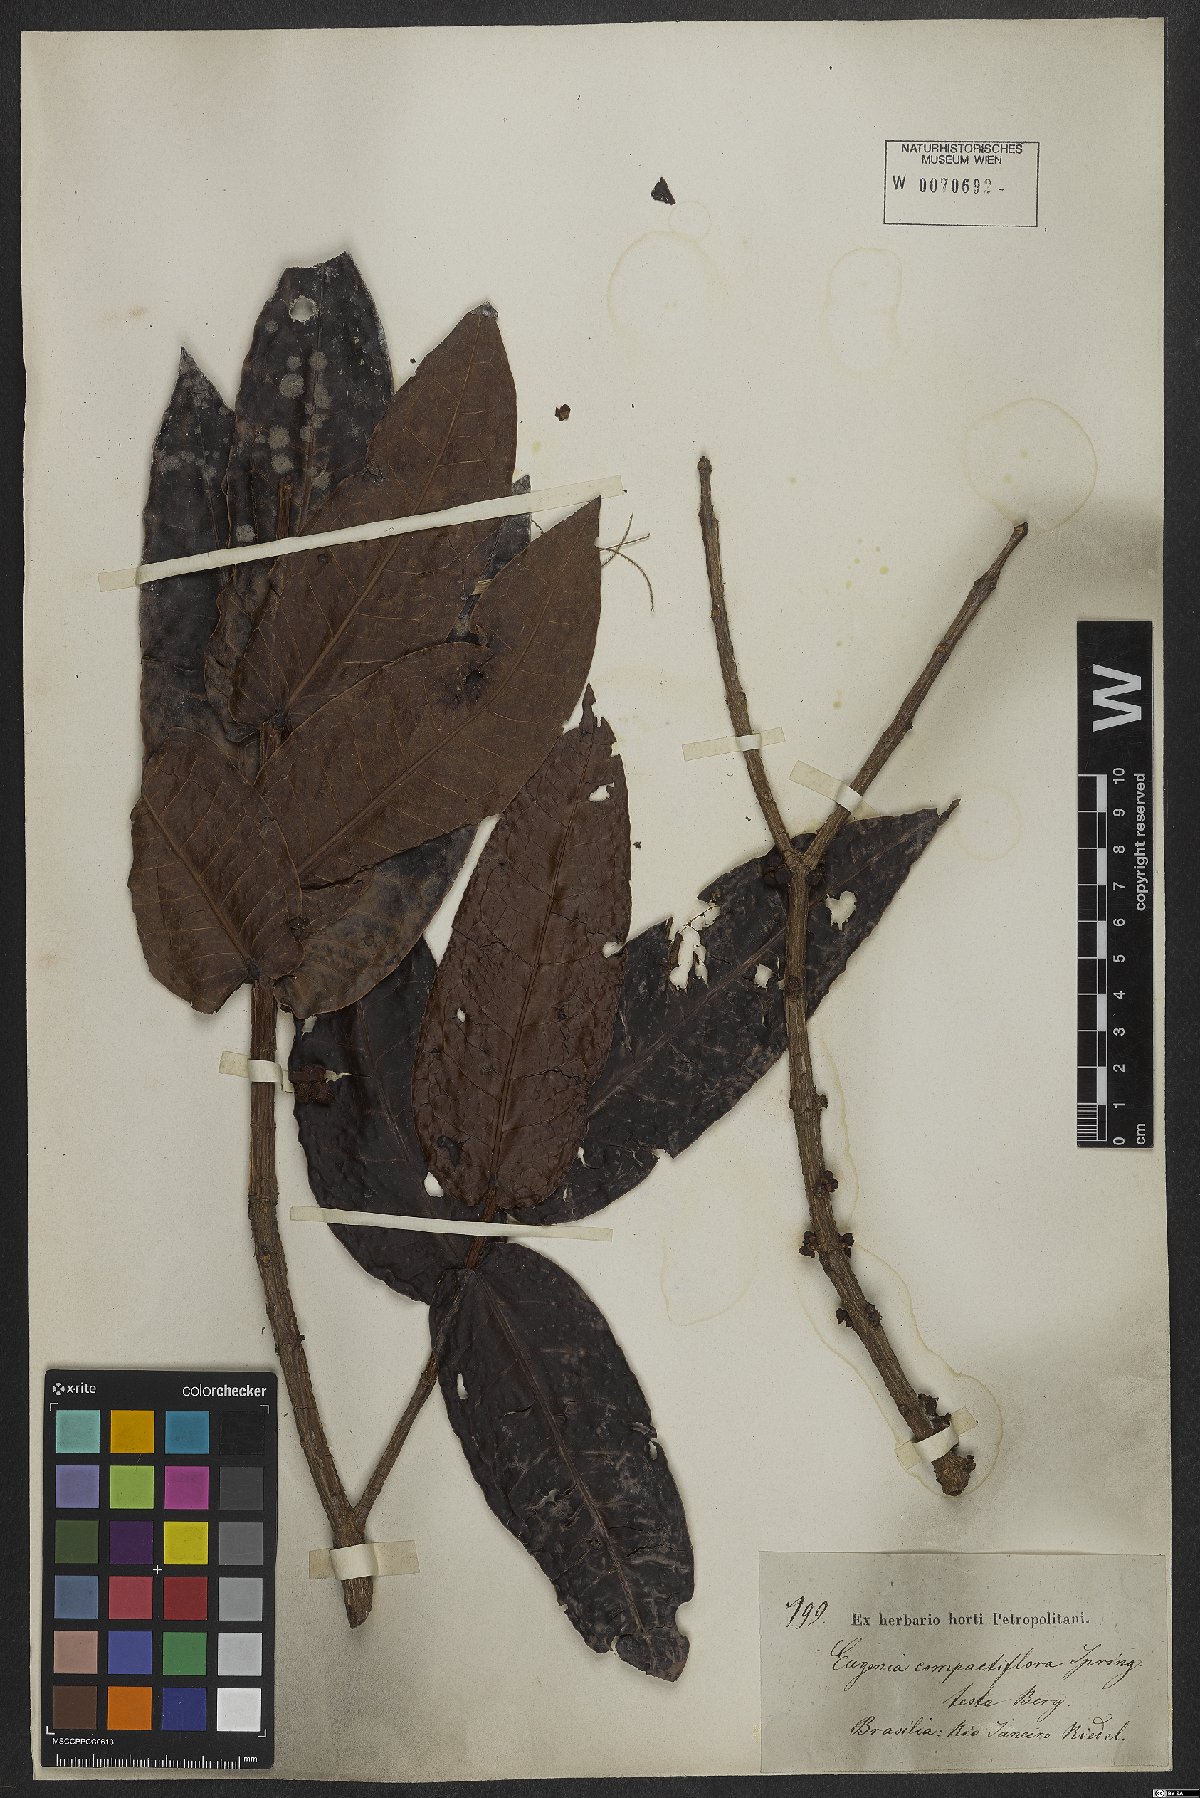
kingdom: Plantae
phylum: Tracheophyta
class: Magnoliopsida
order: Myrtales
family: Myrtaceae
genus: Eugenia
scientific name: Eugenia monosperma
